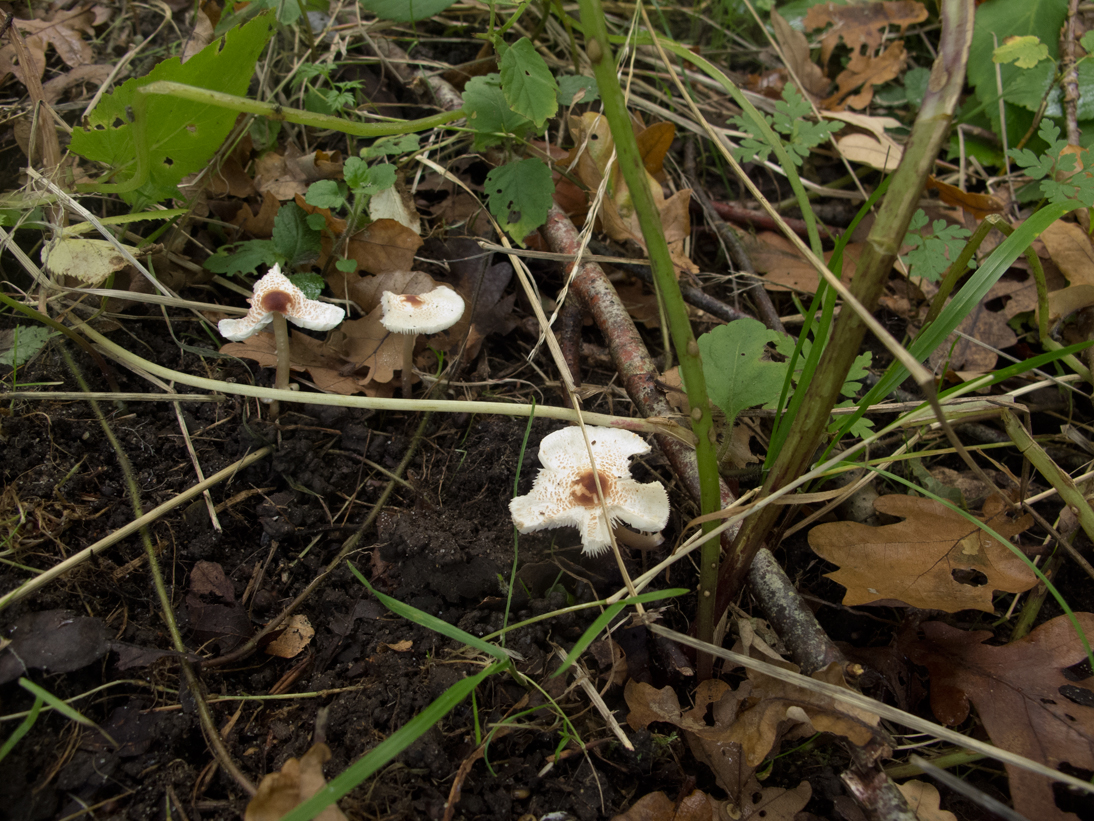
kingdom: Fungi
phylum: Basidiomycota
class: Agaricomycetes
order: Agaricales
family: Agaricaceae
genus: Lepiota
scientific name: Lepiota cristata
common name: stinkende parasolhat
